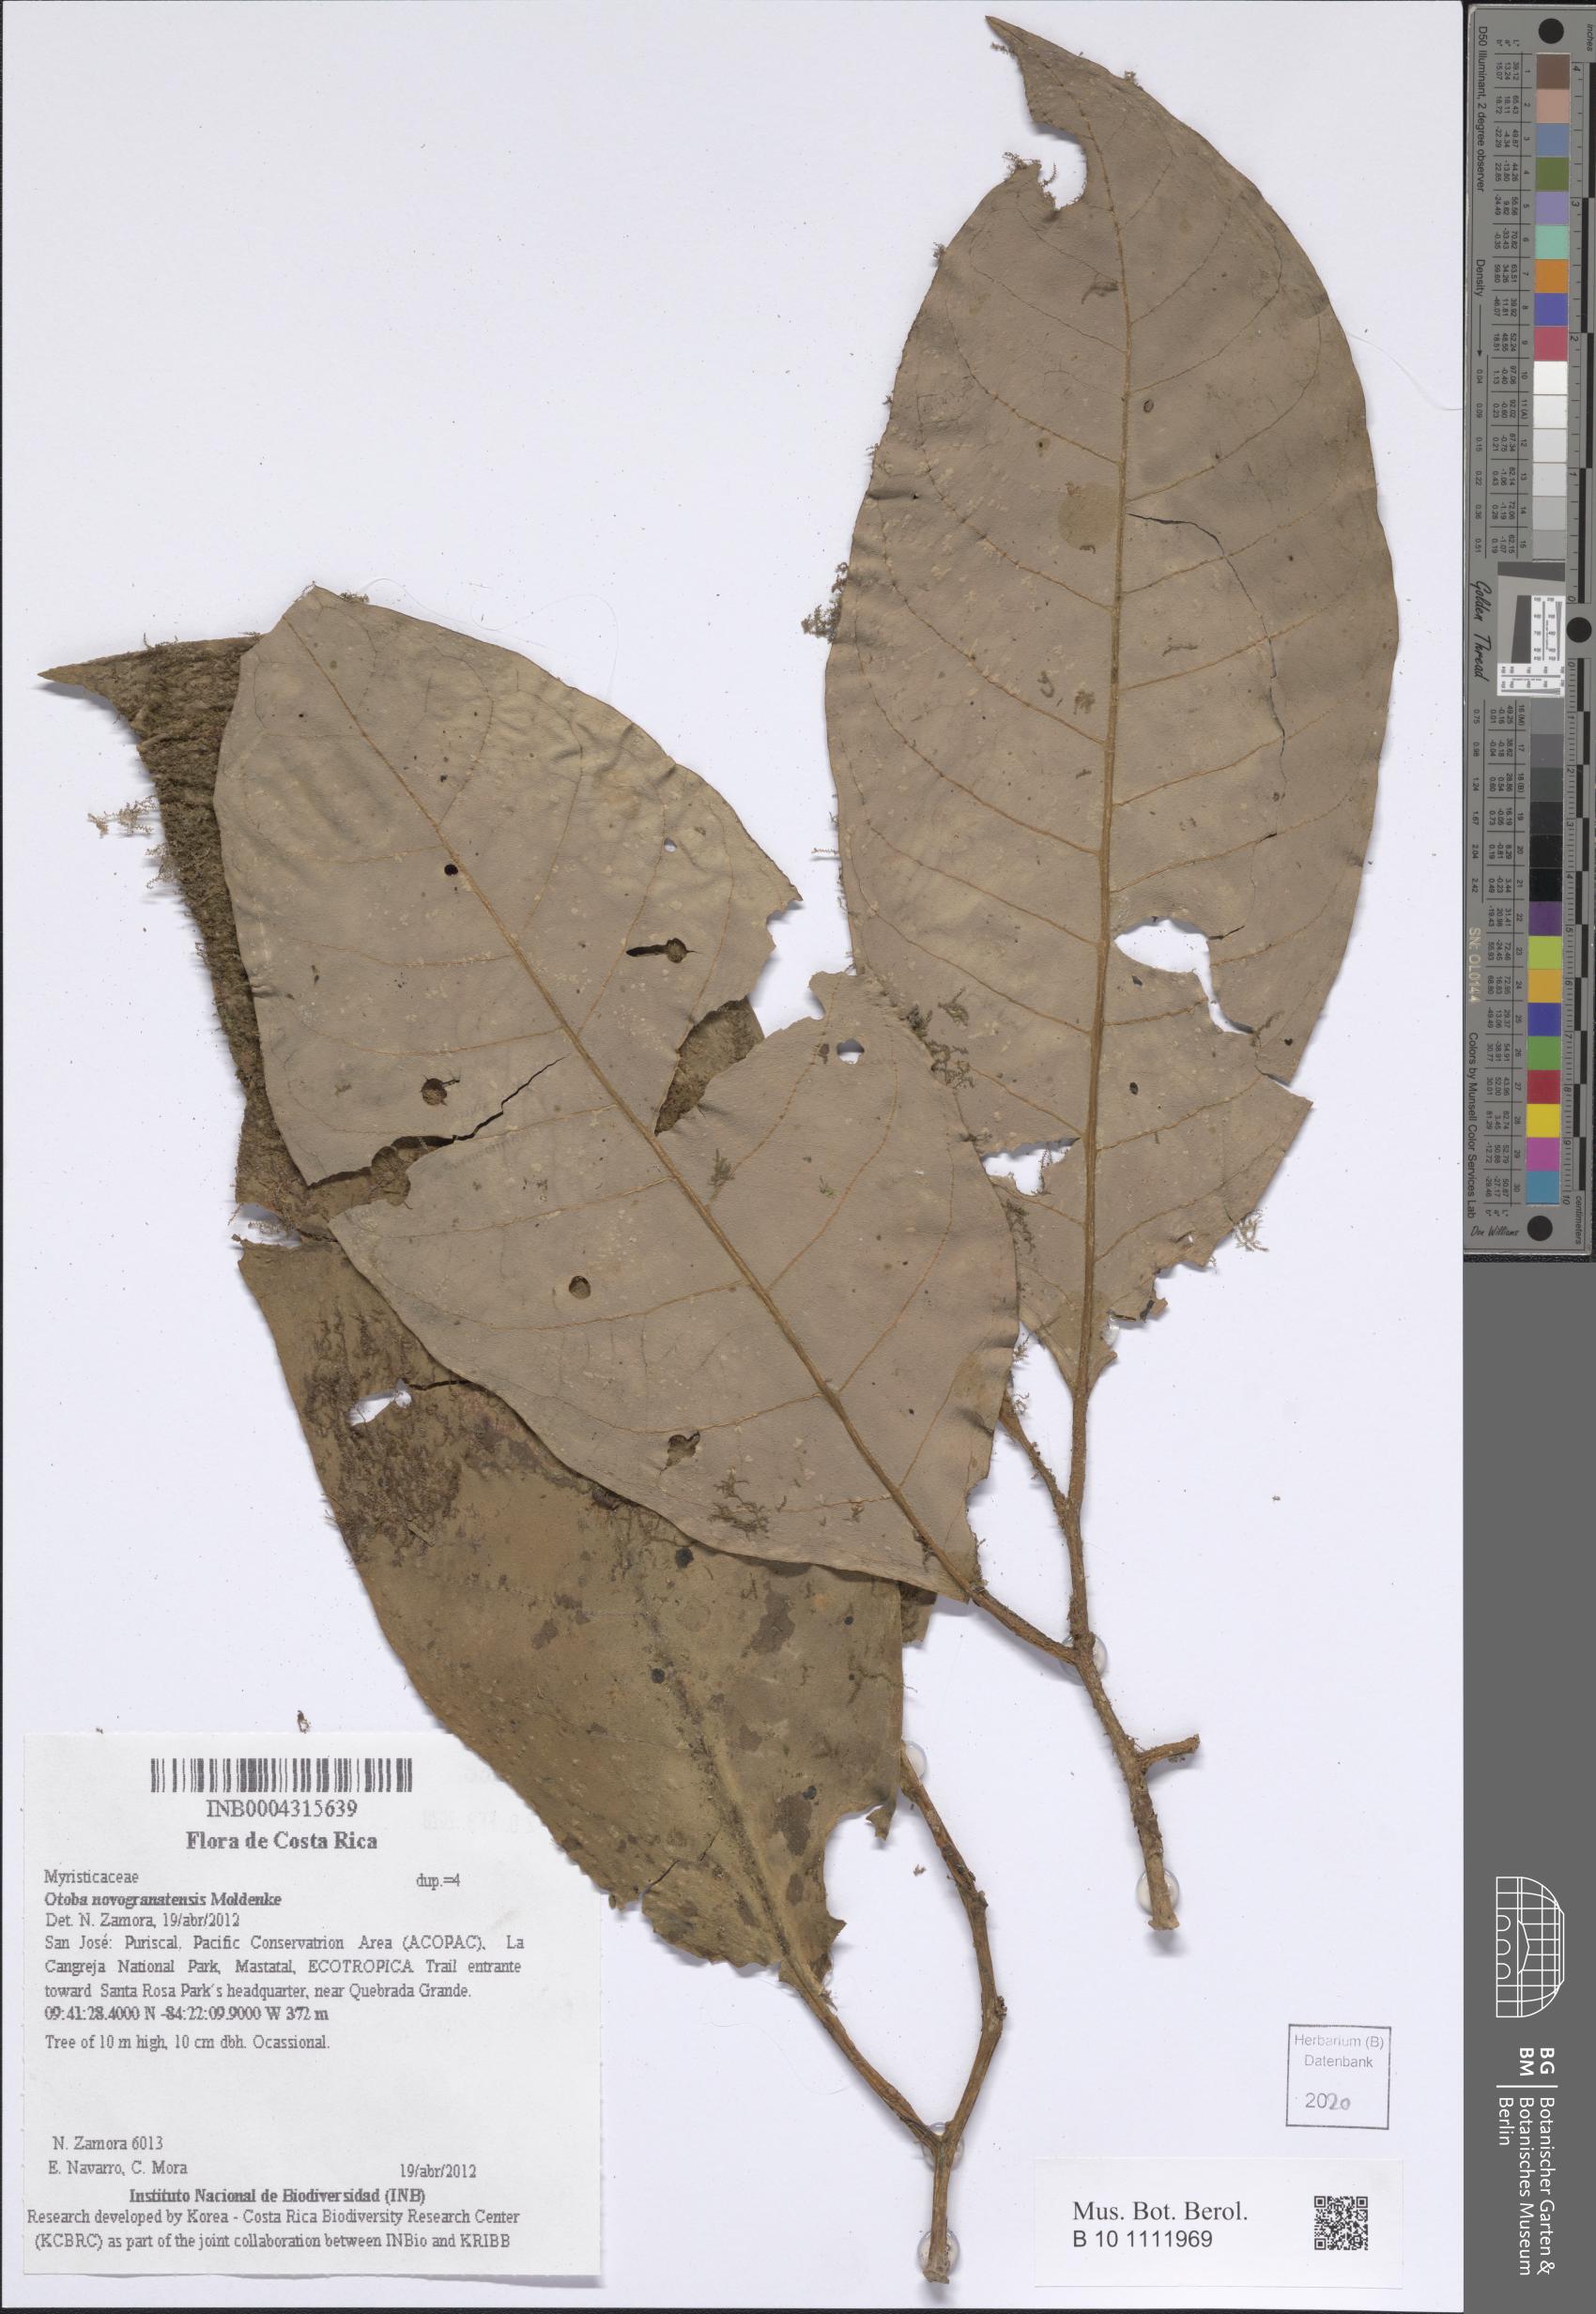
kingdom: Plantae
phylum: Tracheophyta
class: Magnoliopsida
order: Magnoliales
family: Myristicaceae
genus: Otoba
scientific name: Otoba novogranatensis
